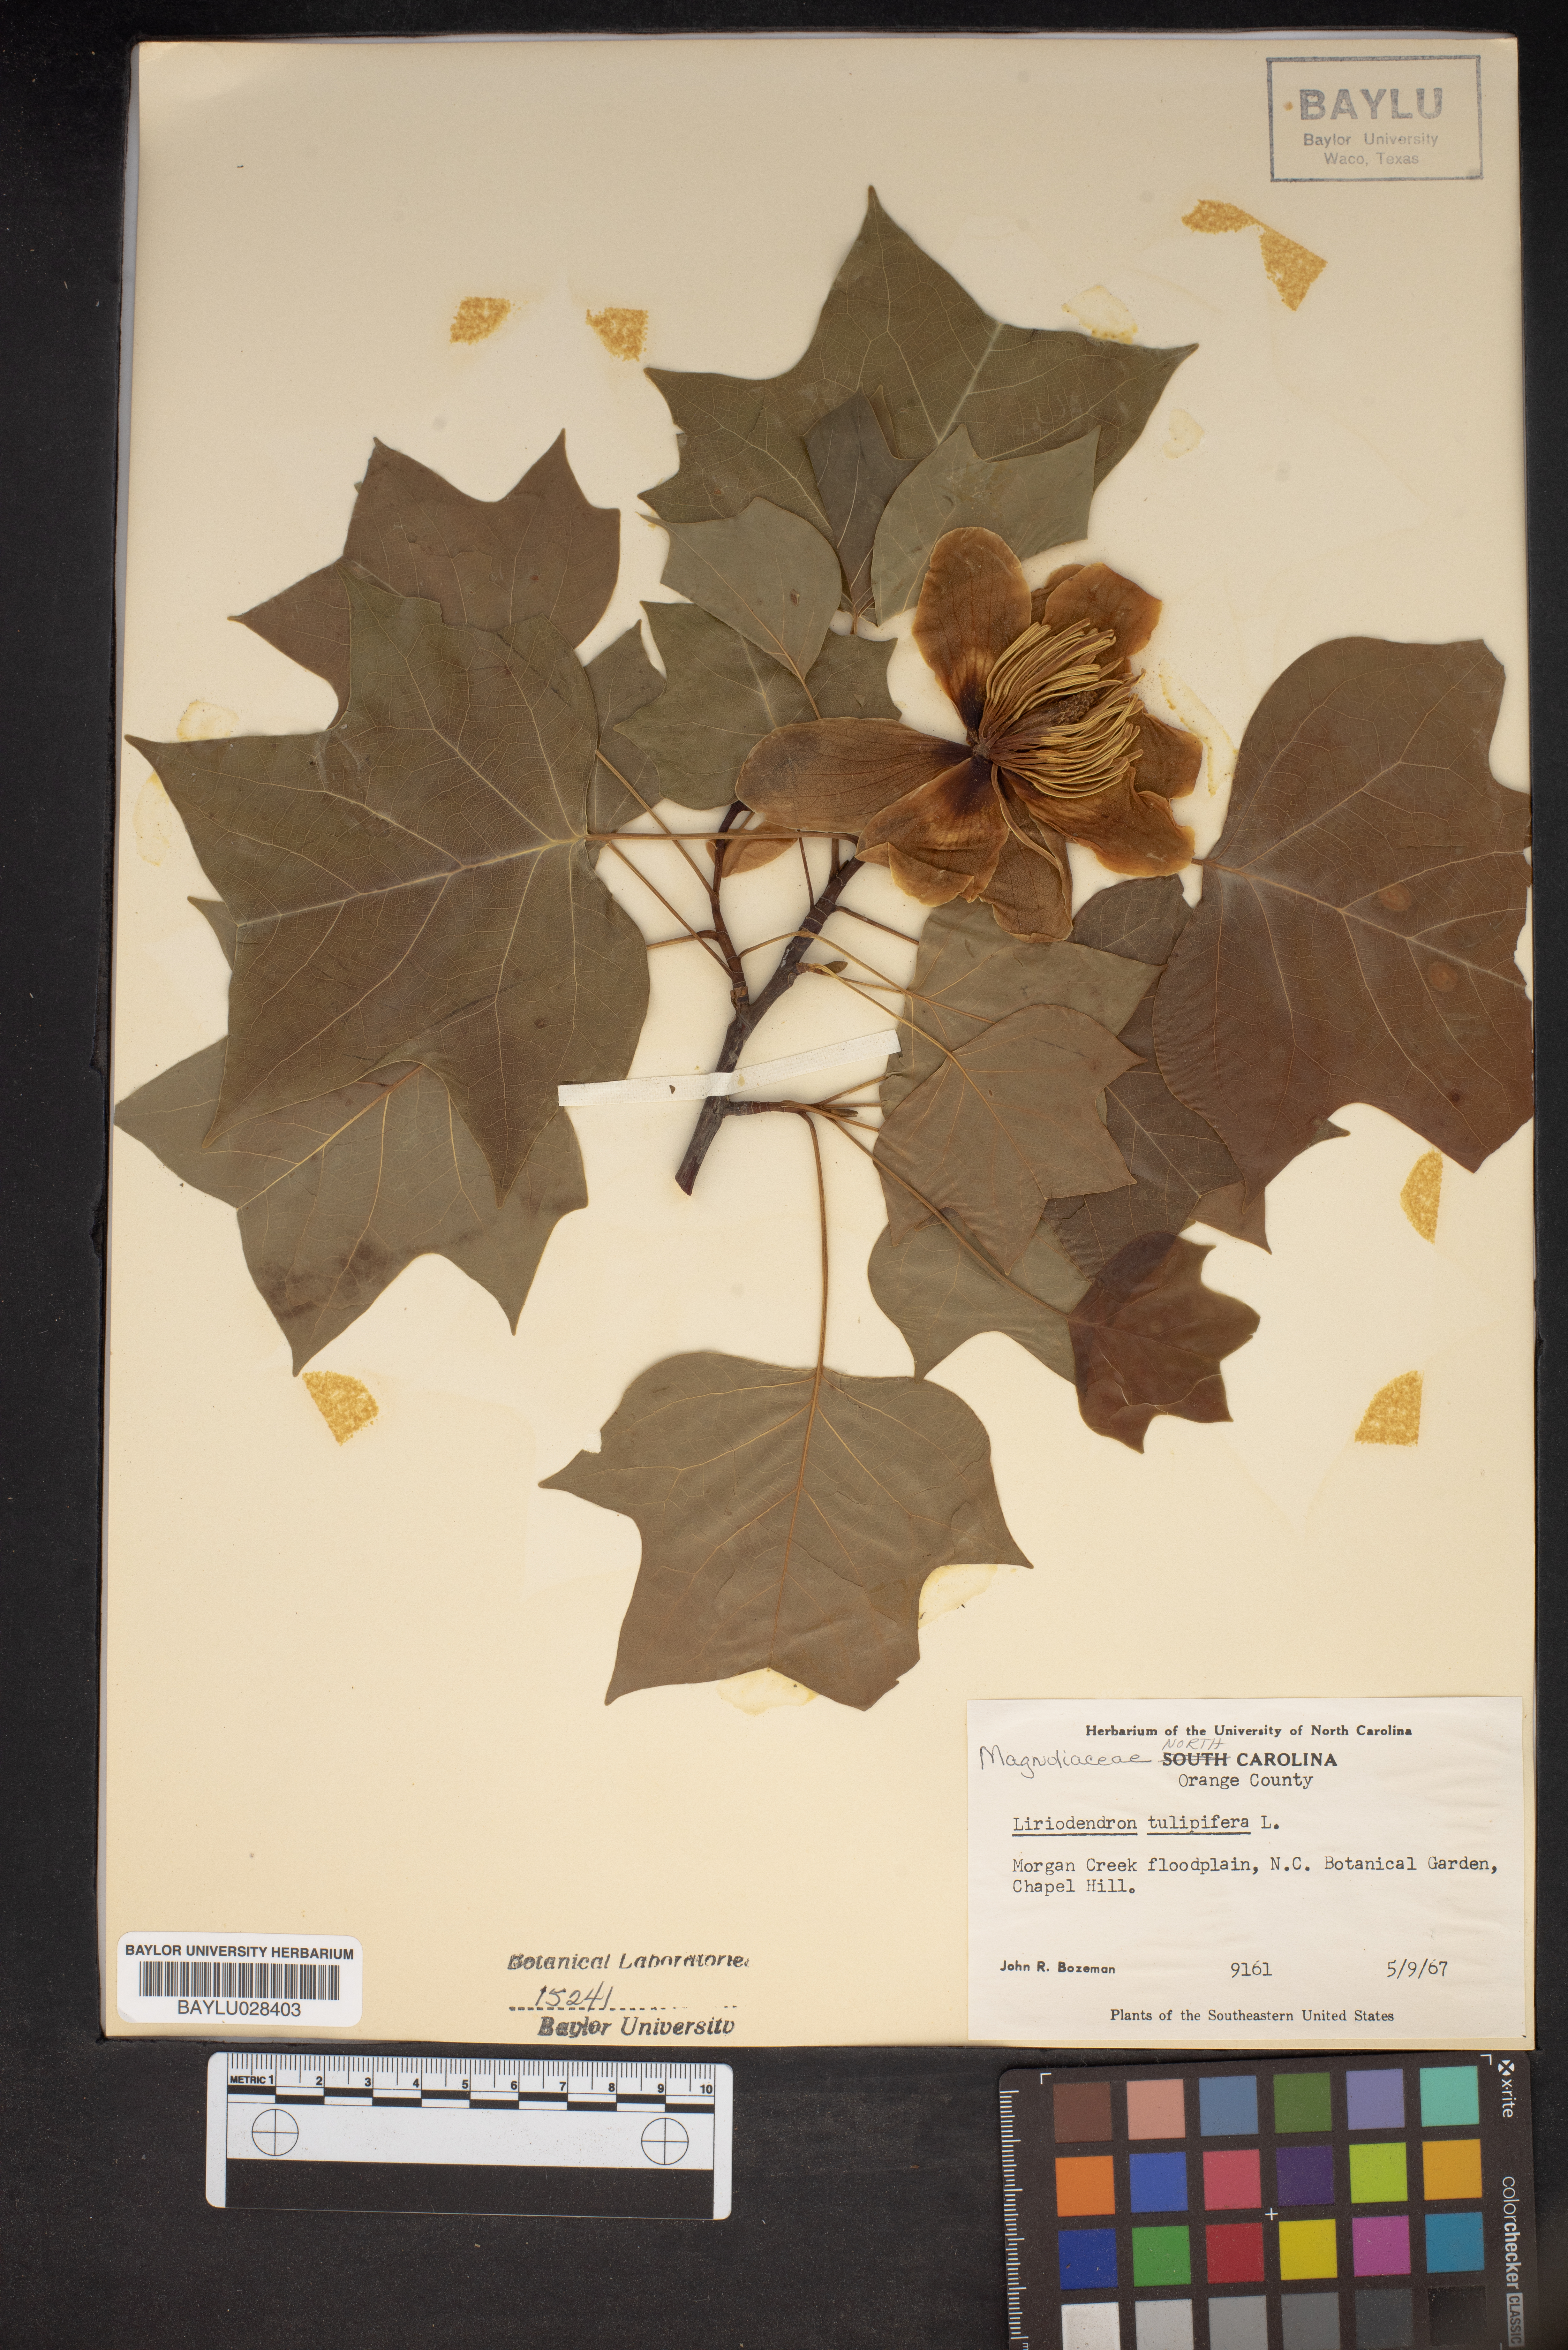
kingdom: Plantae
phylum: Tracheophyta
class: Magnoliopsida
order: Magnoliales
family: Magnoliaceae
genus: Liriodendron
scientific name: Liriodendron tulipifera
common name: Tulip tree
